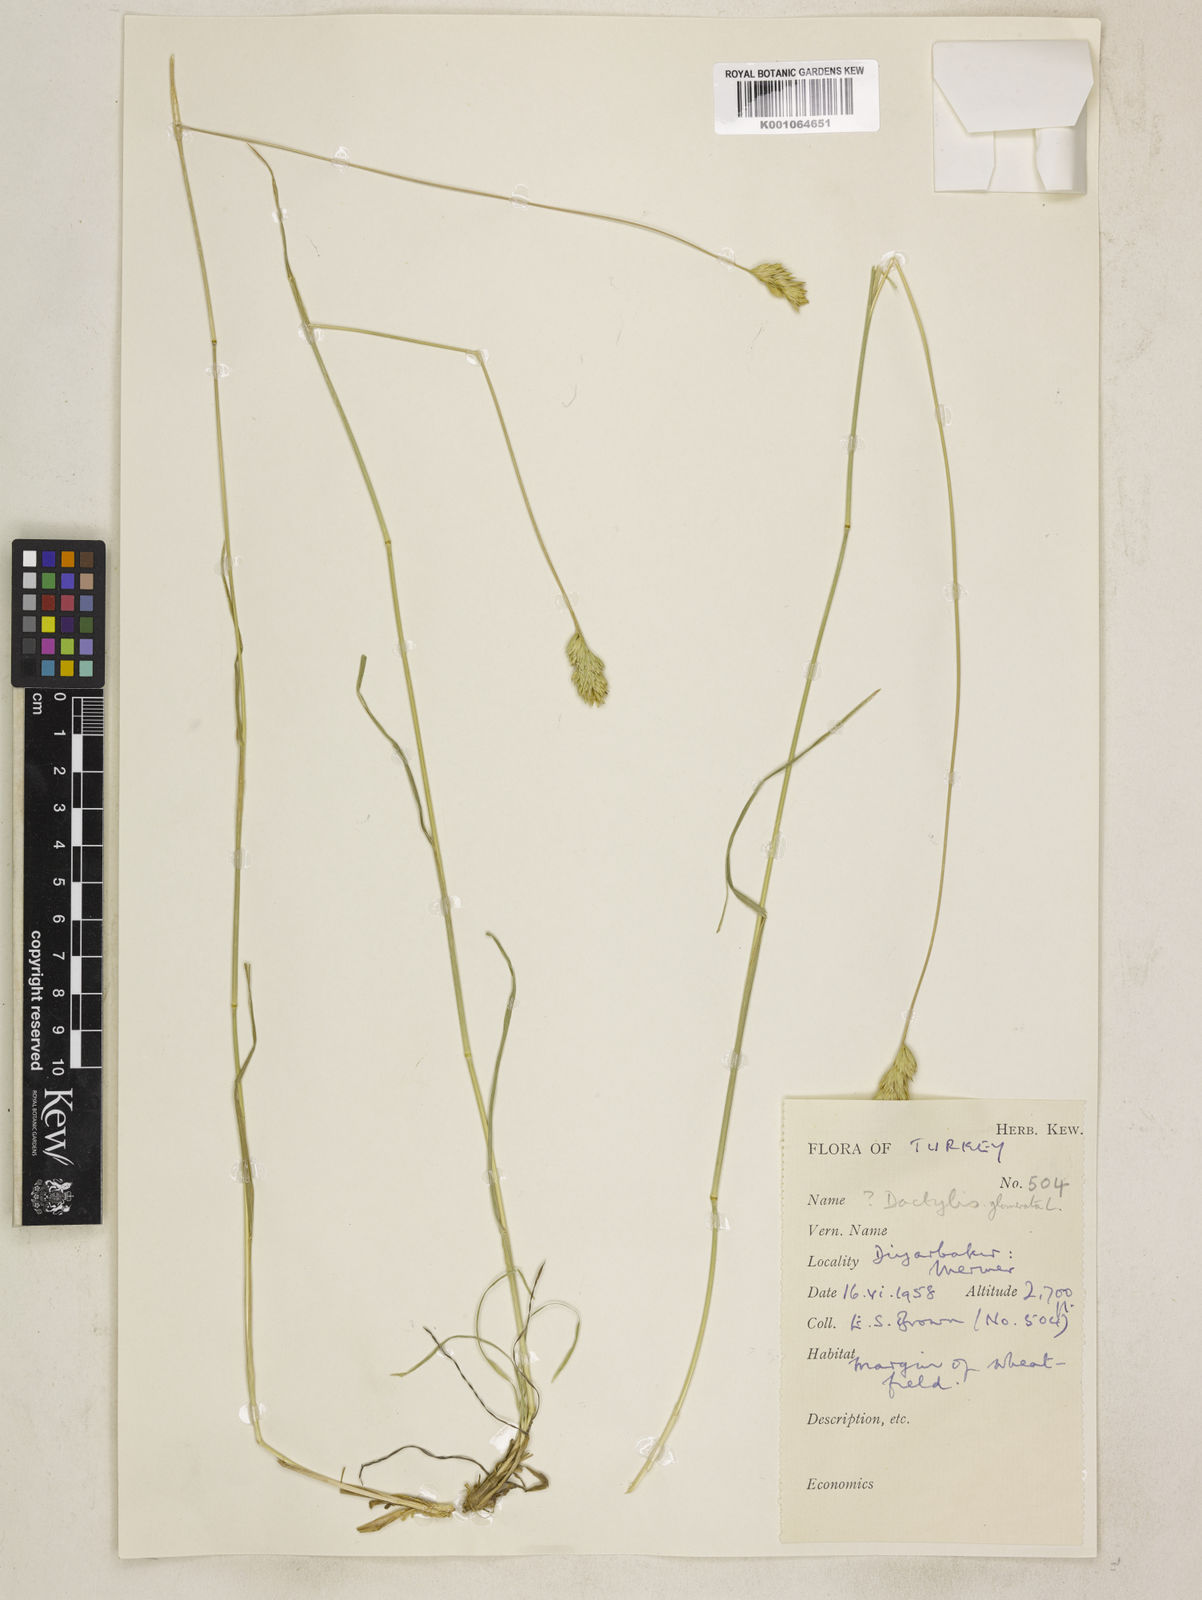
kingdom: Plantae
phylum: Tracheophyta
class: Liliopsida
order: Poales
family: Poaceae
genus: Dactylis
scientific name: Dactylis glomerata
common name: Orchardgrass
